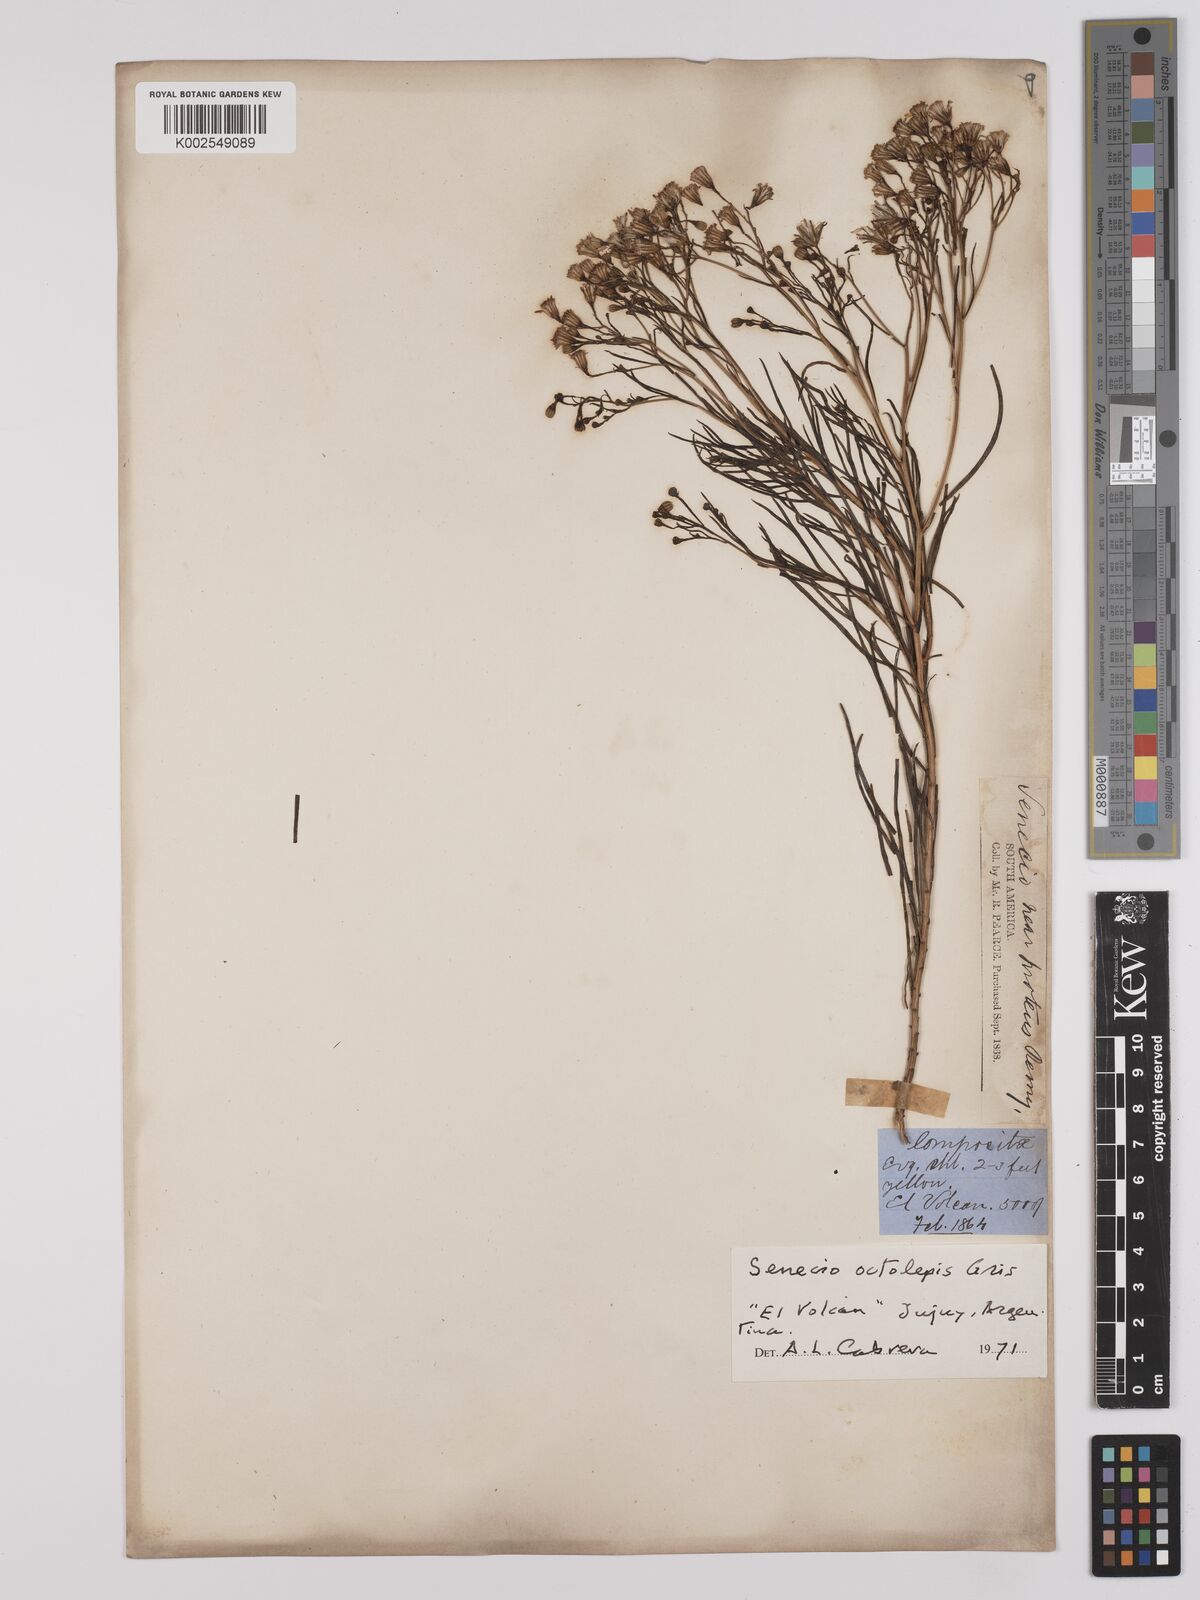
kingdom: Plantae
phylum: Tracheophyta
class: Magnoliopsida
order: Asterales
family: Asteraceae
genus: Senecio
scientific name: Senecio octolepis
